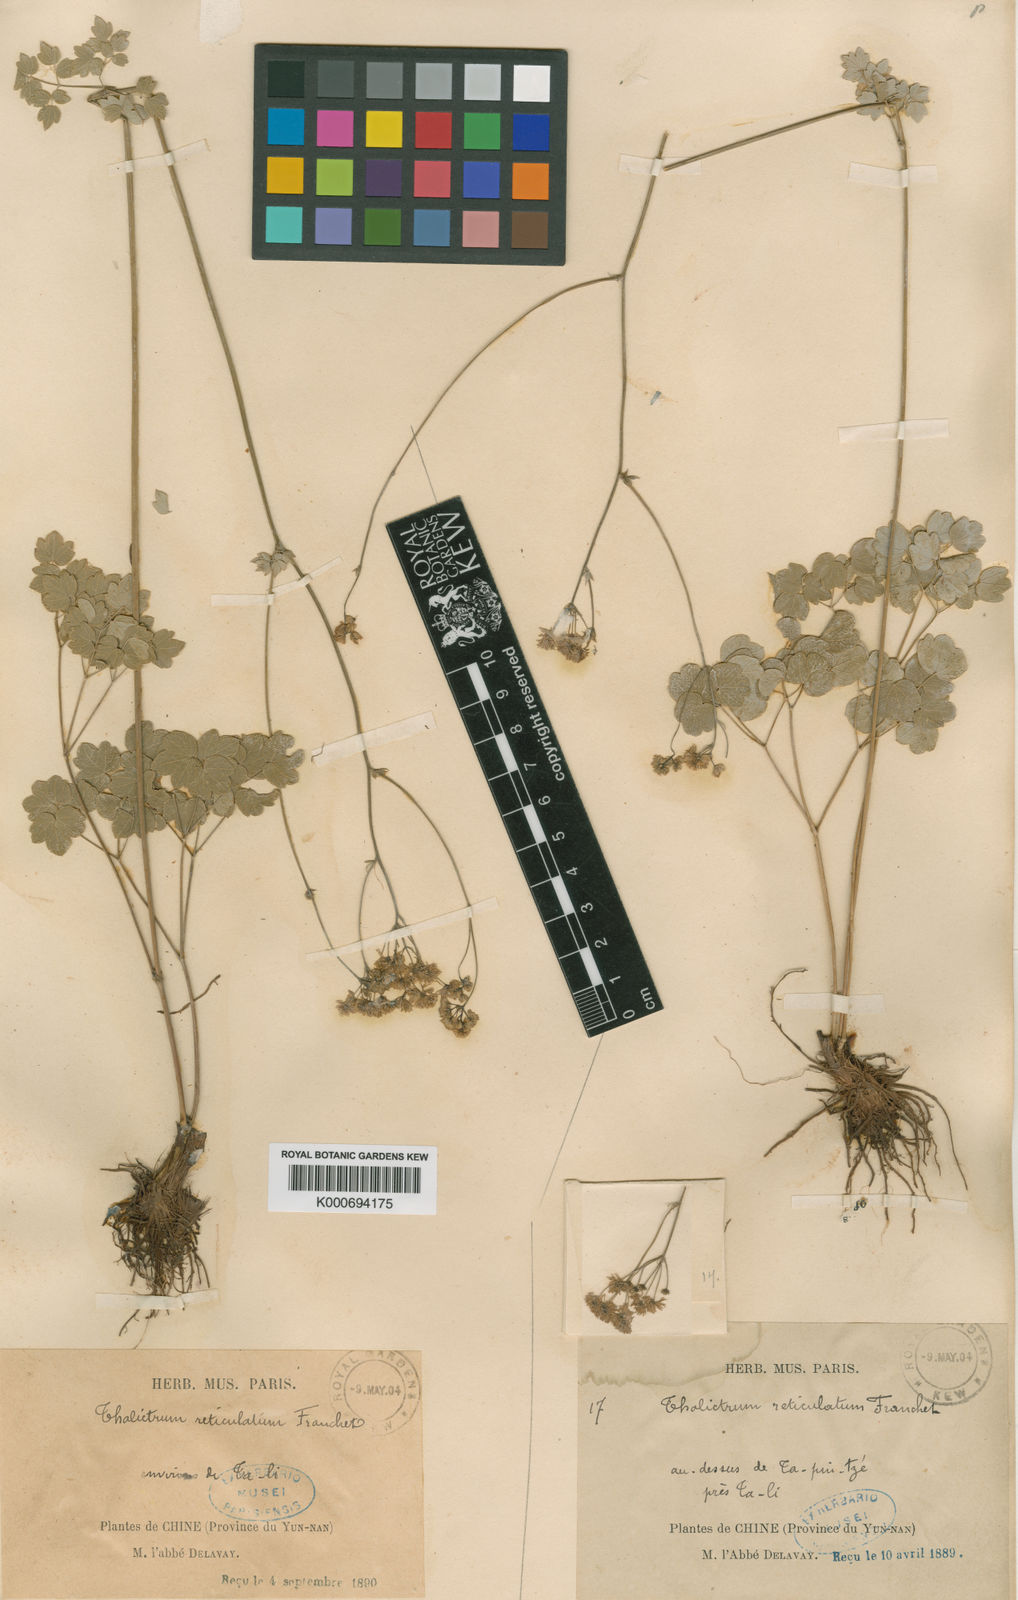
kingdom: Plantae
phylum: Tracheophyta
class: Magnoliopsida
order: Ranunculales
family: Ranunculaceae
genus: Thalictrum
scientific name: Thalictrum reticulatum
